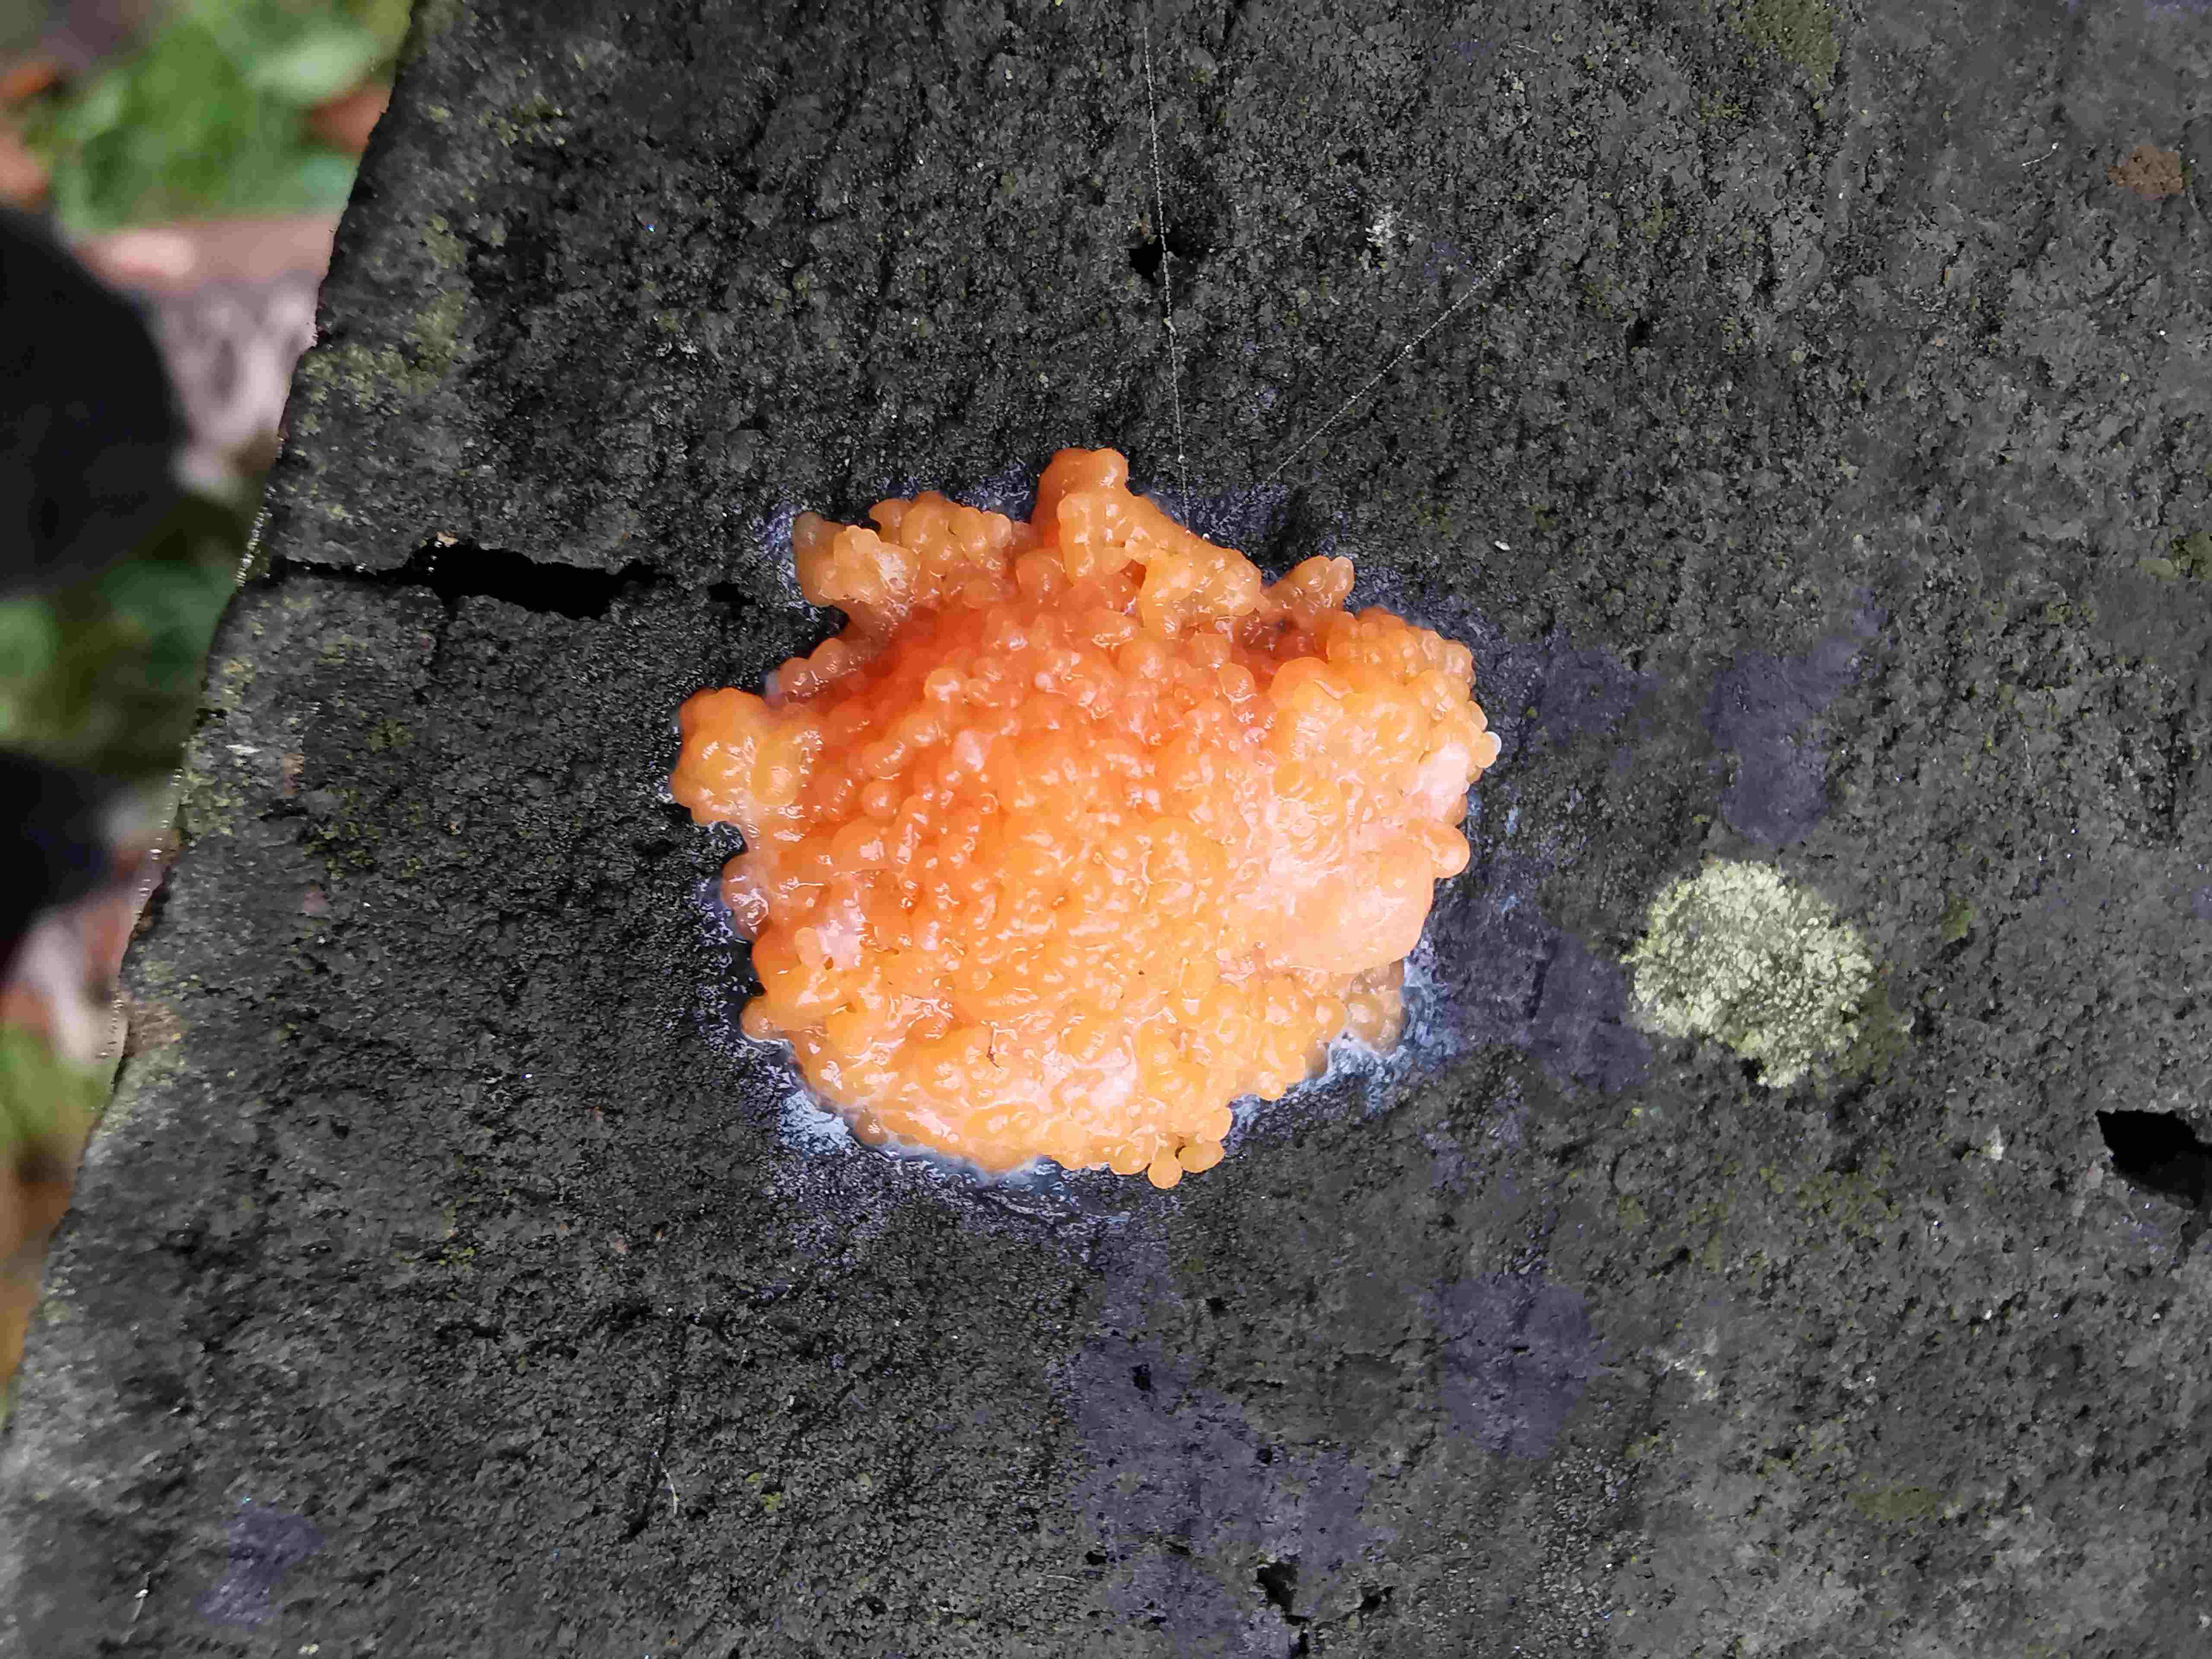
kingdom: Protozoa
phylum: Mycetozoa
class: Myxomycetes
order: Cribrariales
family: Tubiferaceae
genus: Tubifera
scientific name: Tubifera ferruginosa
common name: kanel-støvrør
